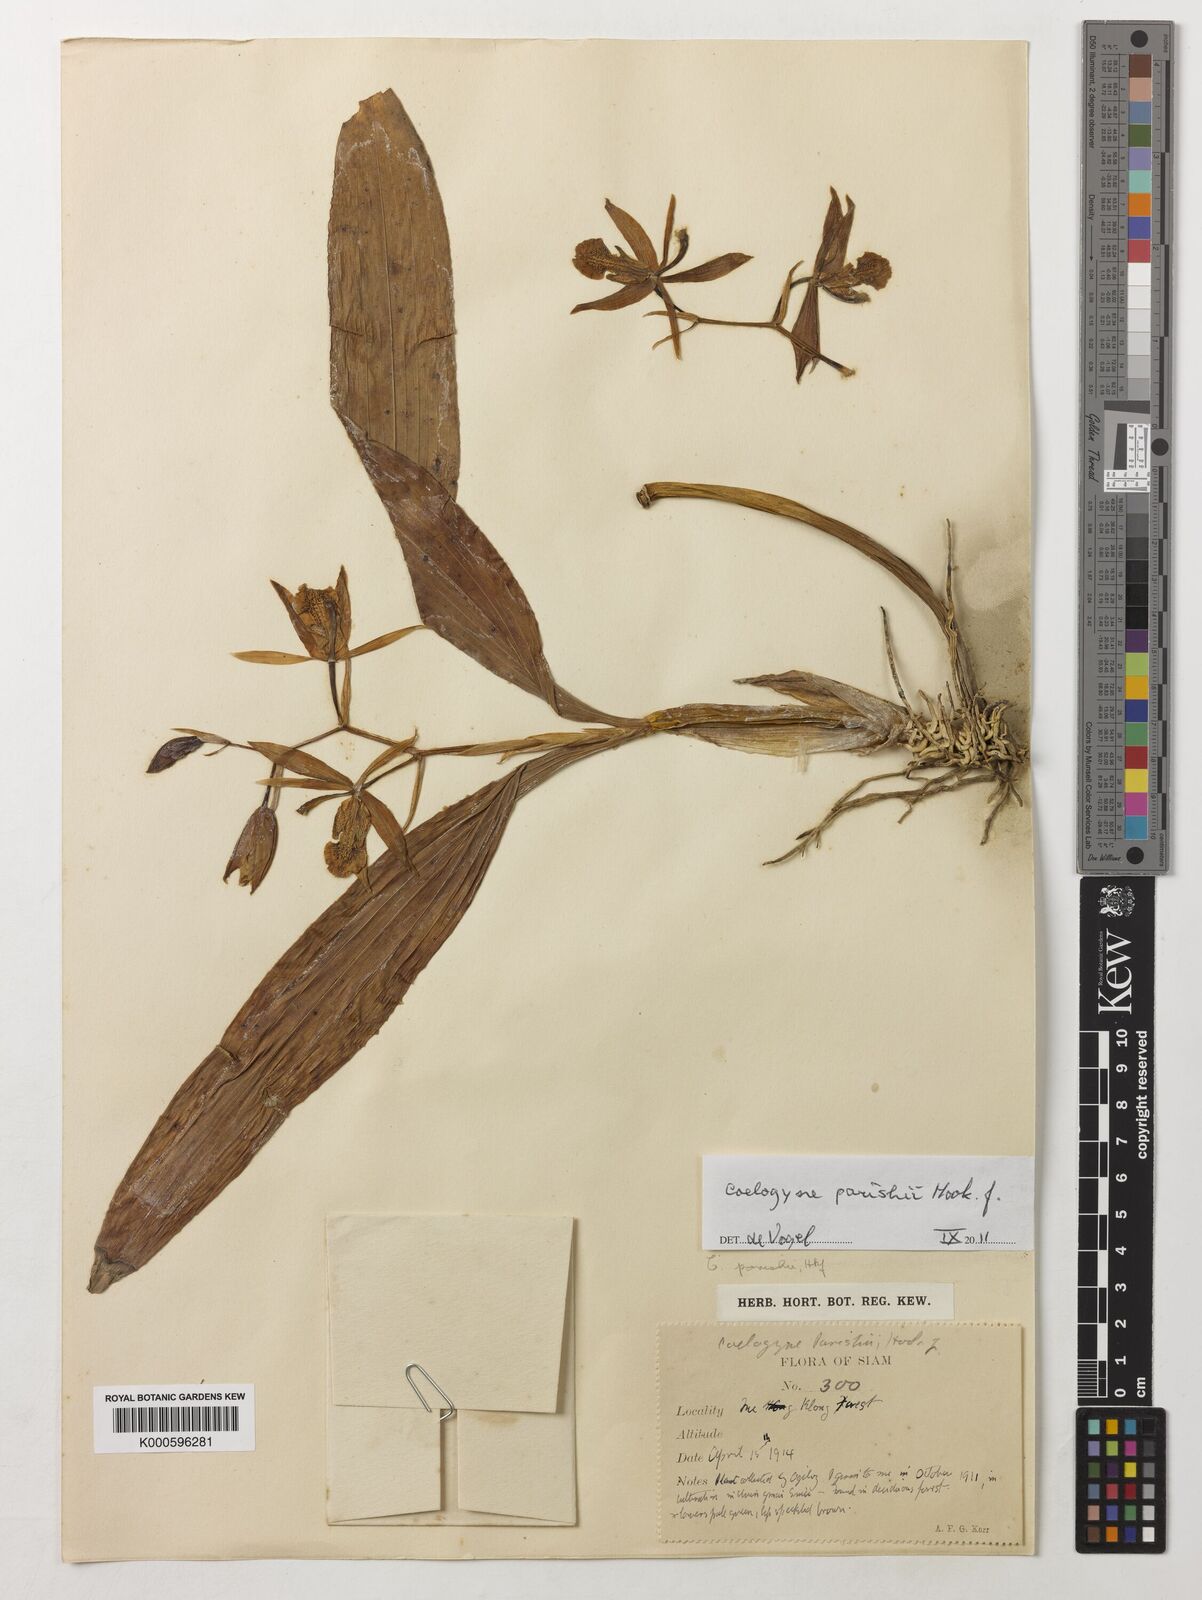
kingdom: Plantae
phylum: Tracheophyta
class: Liliopsida
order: Asparagales
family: Orchidaceae
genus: Coelogyne
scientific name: Coelogyne parishii
